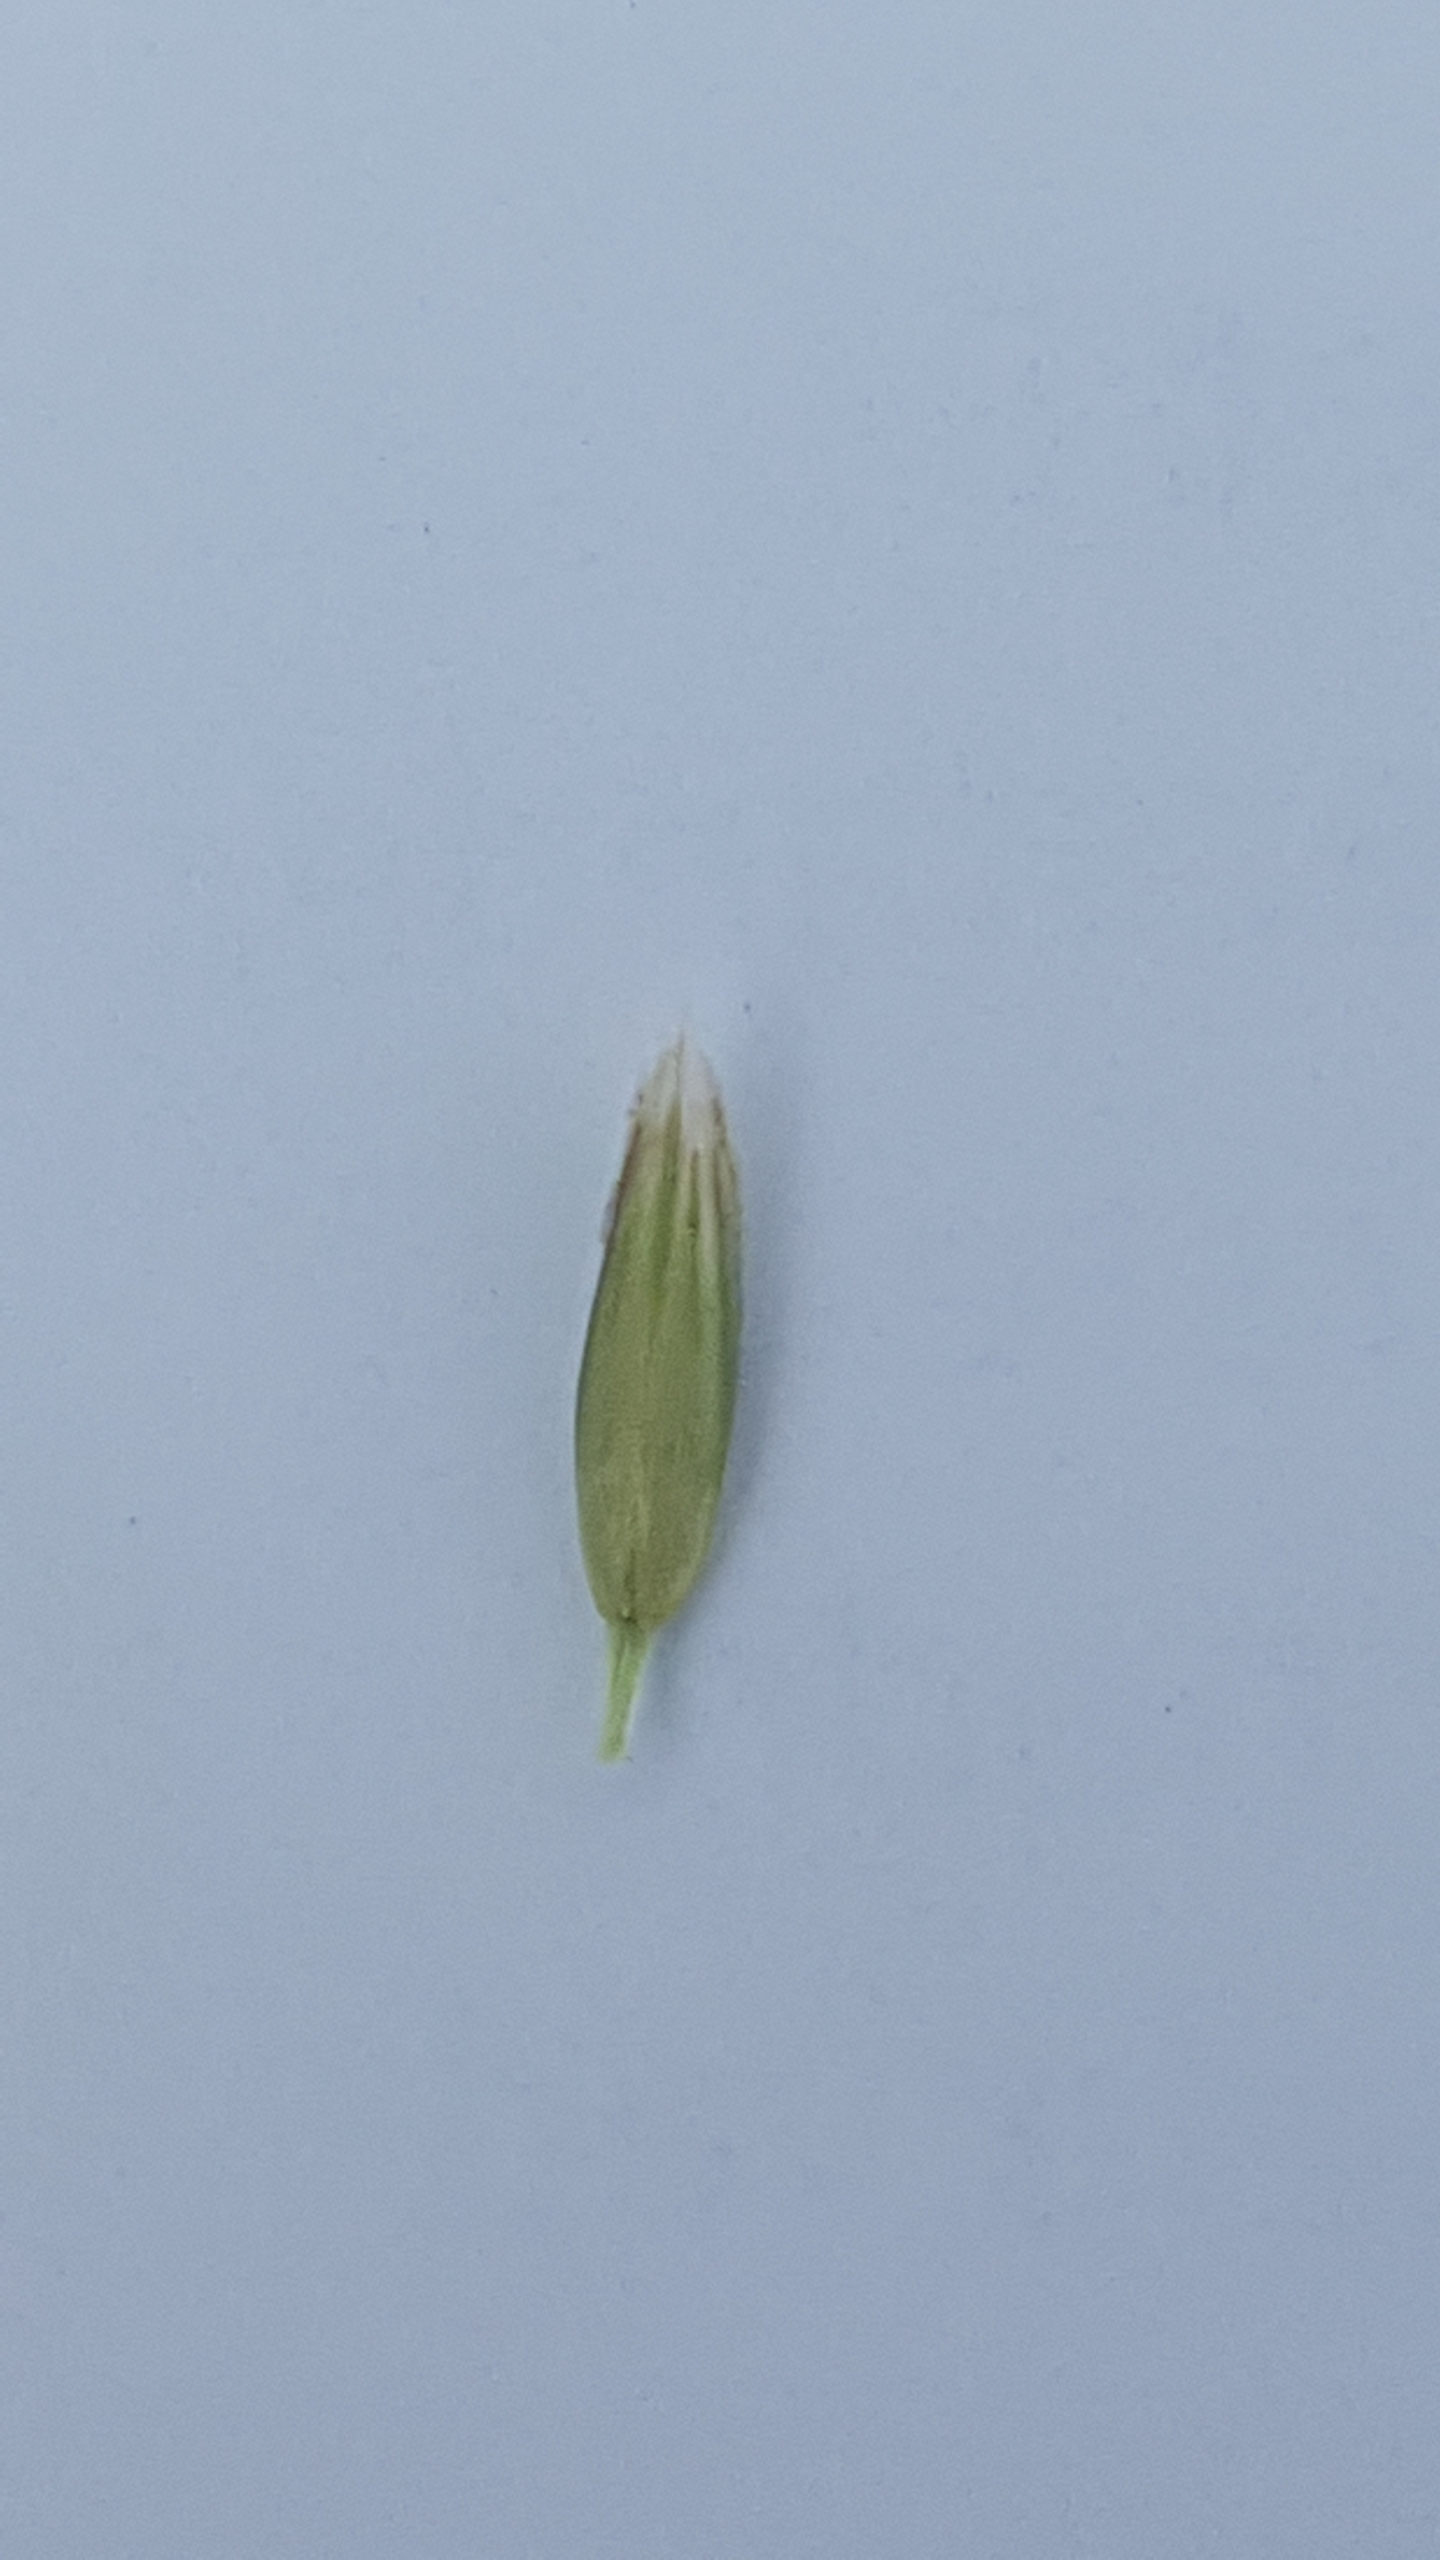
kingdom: Plantae
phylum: Tracheophyta
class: Liliopsida
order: Poales
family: Poaceae
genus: Lolium
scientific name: Lolium perenne
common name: Almindelig rajgræs
